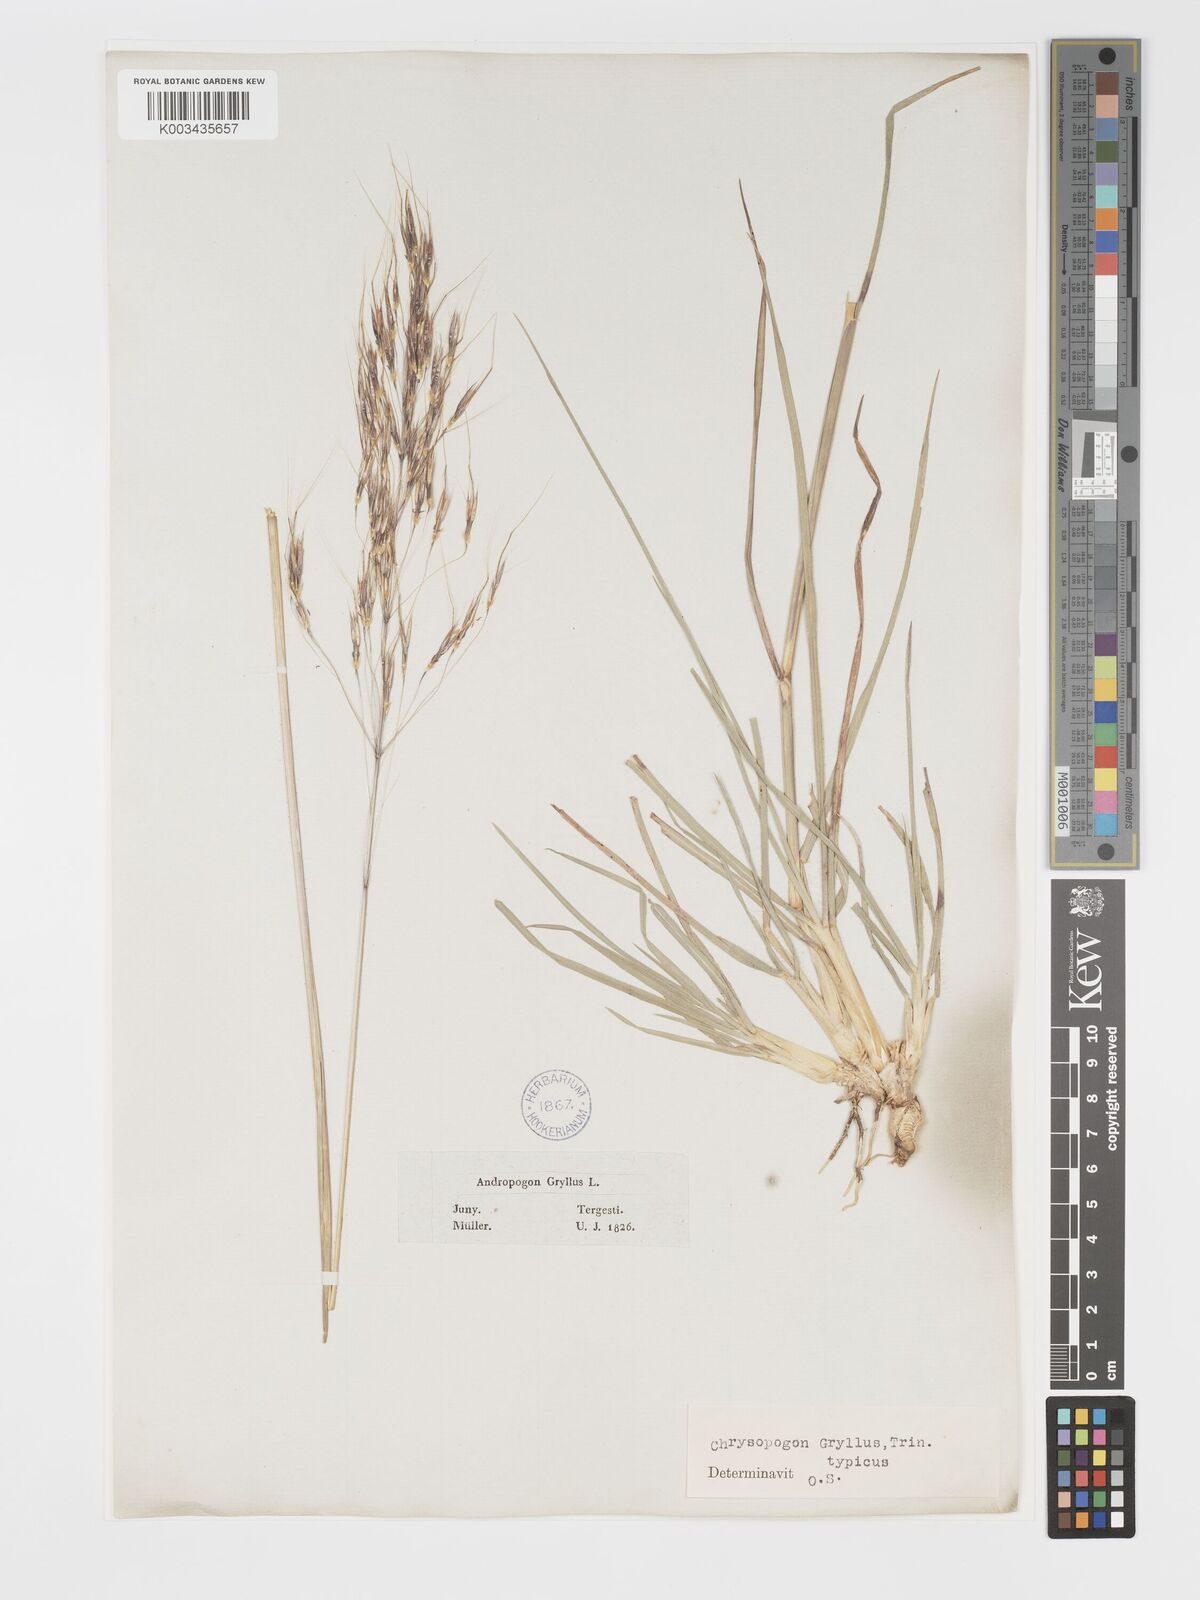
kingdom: Plantae
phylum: Tracheophyta
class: Liliopsida
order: Poales
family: Poaceae
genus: Chrysopogon
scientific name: Chrysopogon gryllus
